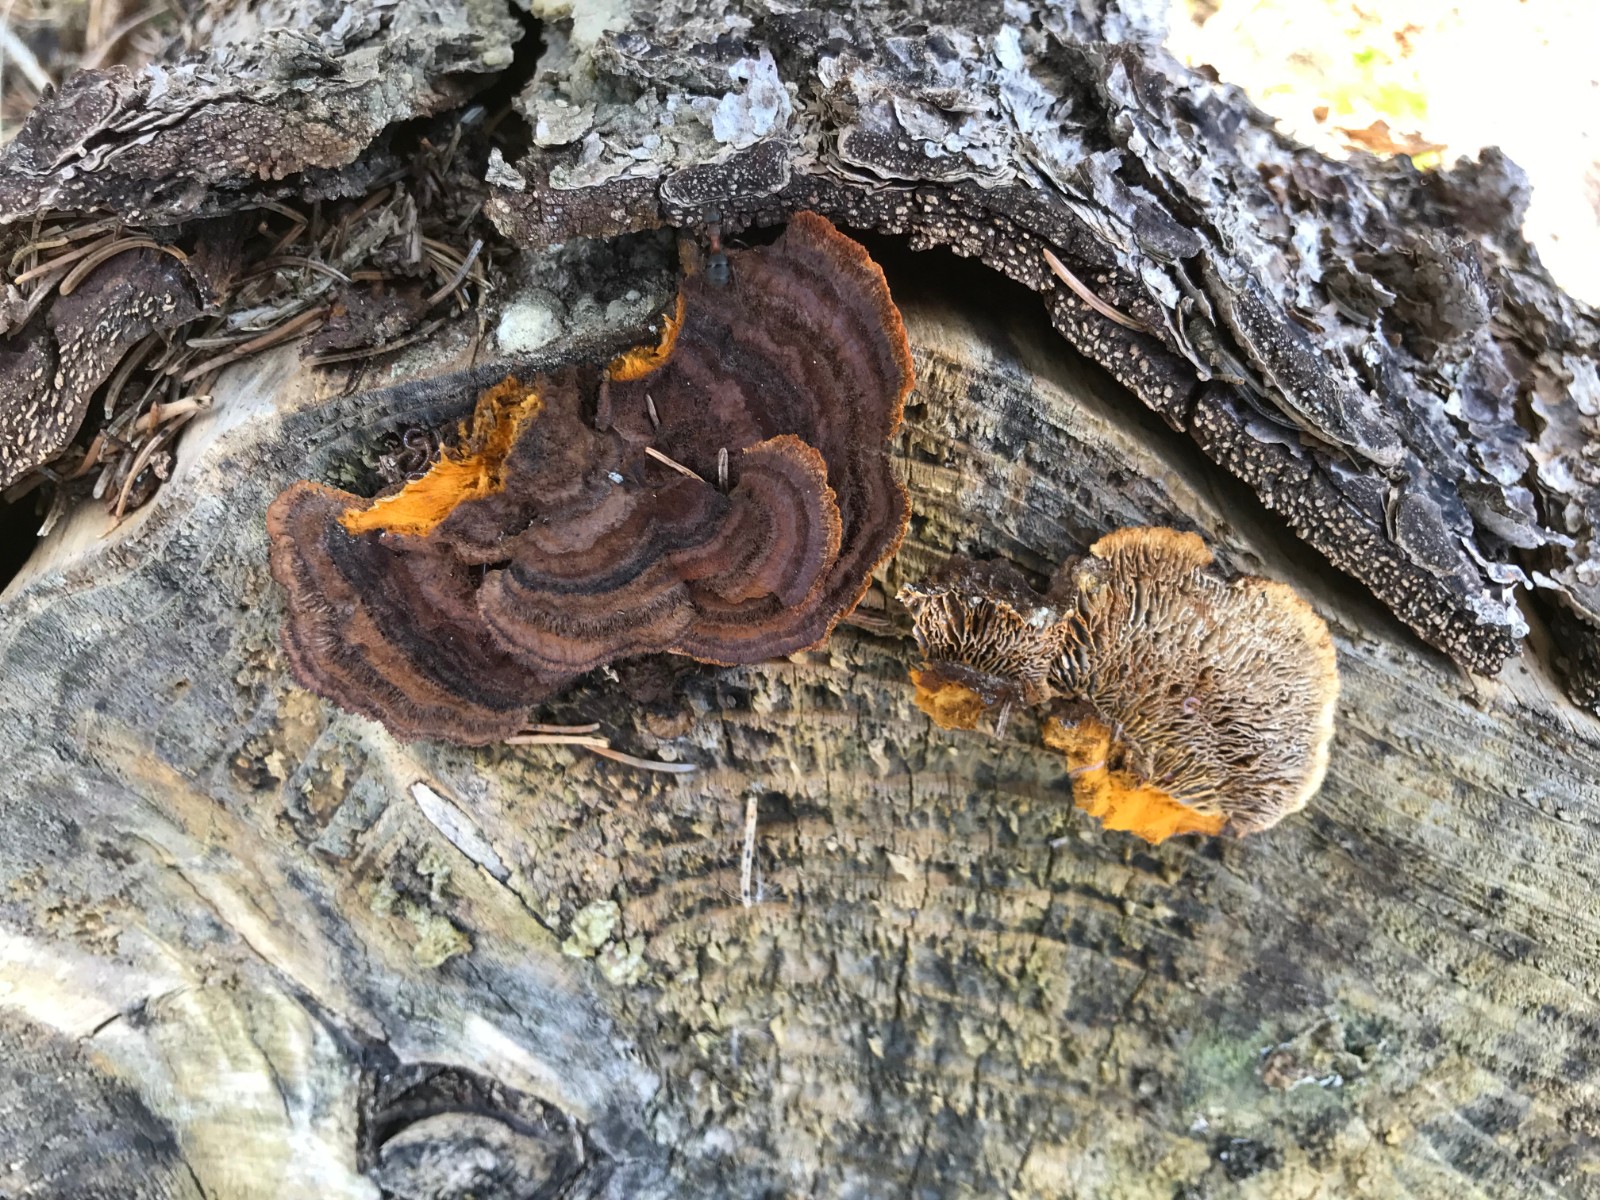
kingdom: Fungi
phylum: Basidiomycota
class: Agaricomycetes
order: Gloeophyllales
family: Gloeophyllaceae
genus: Gloeophyllum
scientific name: Gloeophyllum sepiarium
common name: fyrre-korkhat
